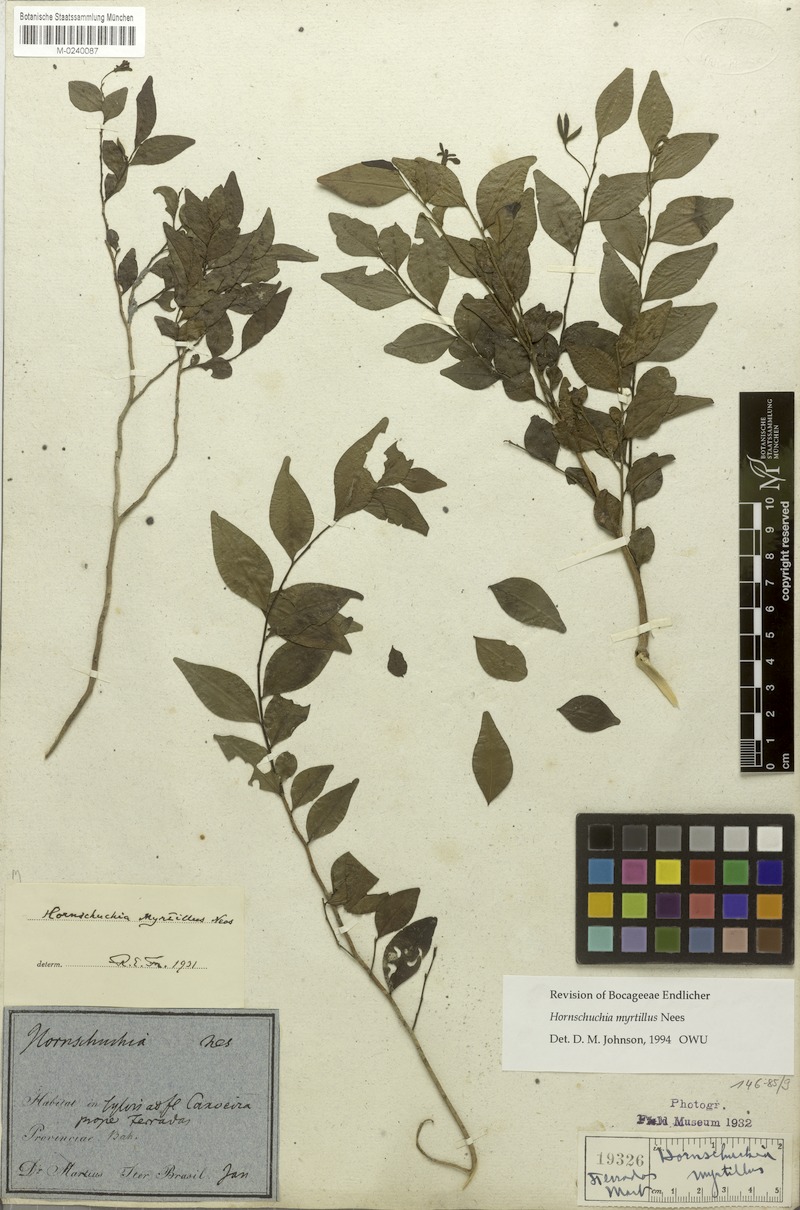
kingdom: Plantae
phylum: Tracheophyta
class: Magnoliopsida
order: Magnoliales
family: Annonaceae
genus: Hornschuchia
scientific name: Hornschuchia myrtillus
